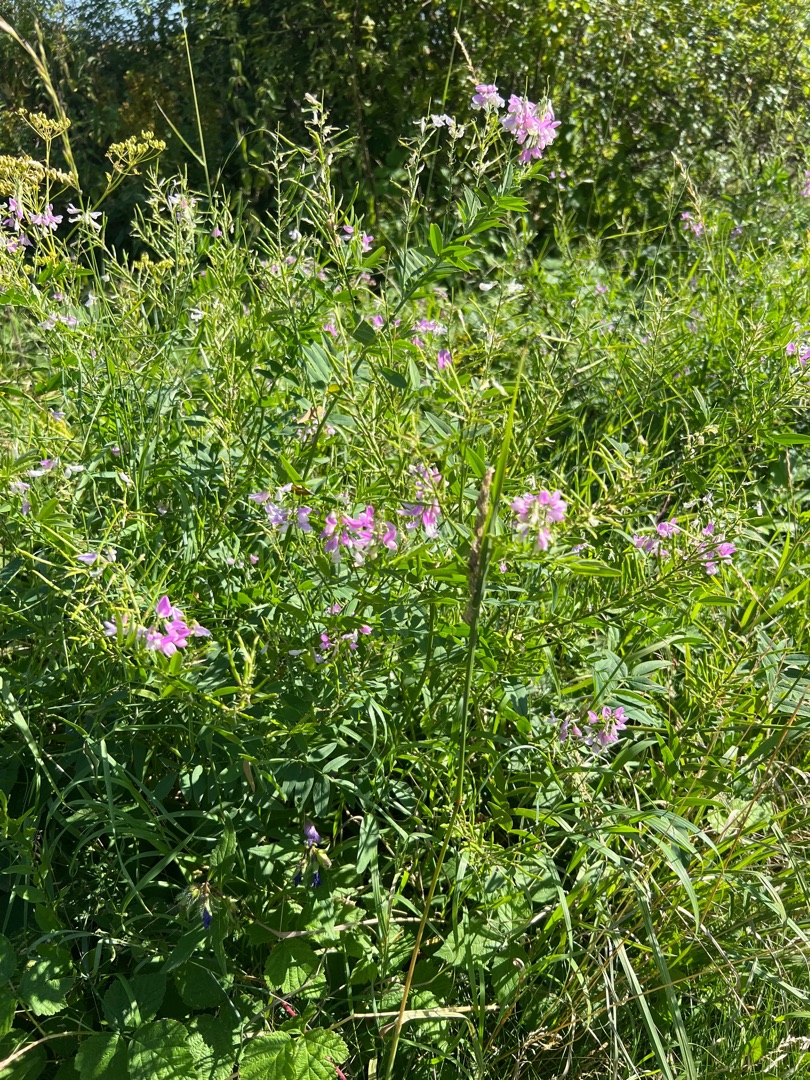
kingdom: Plantae
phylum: Tracheophyta
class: Magnoliopsida
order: Fabales
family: Fabaceae
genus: Galega
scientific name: Galega officinalis
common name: Læge-stregbælg
